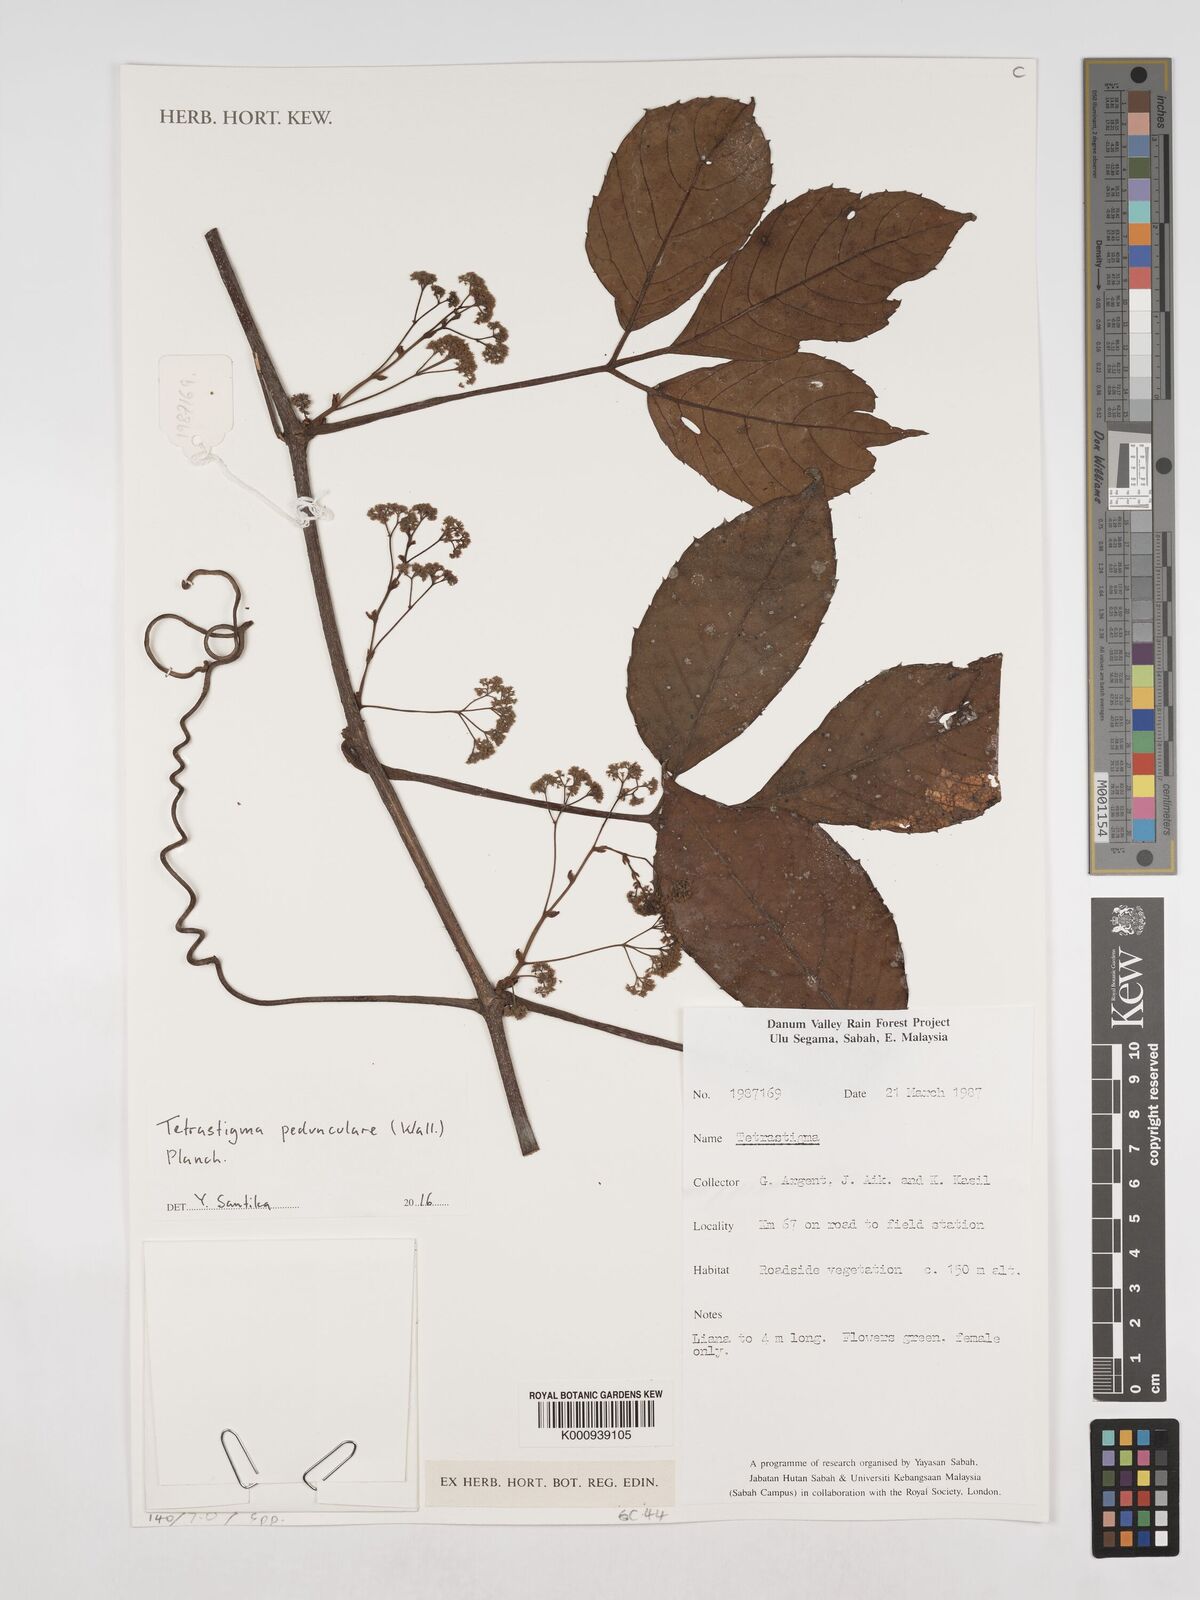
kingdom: Plantae
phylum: Tracheophyta
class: Magnoliopsida
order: Vitales
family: Vitaceae
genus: Tetrastigma
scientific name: Tetrastigma pedunculare
